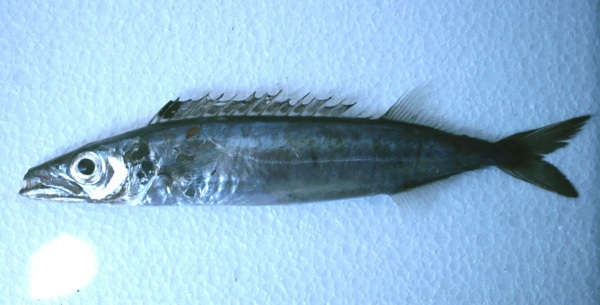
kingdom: Animalia
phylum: Chordata
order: Perciformes
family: Gempylidae
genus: Rexea
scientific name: Rexea prometheoides
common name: Royal escolar
